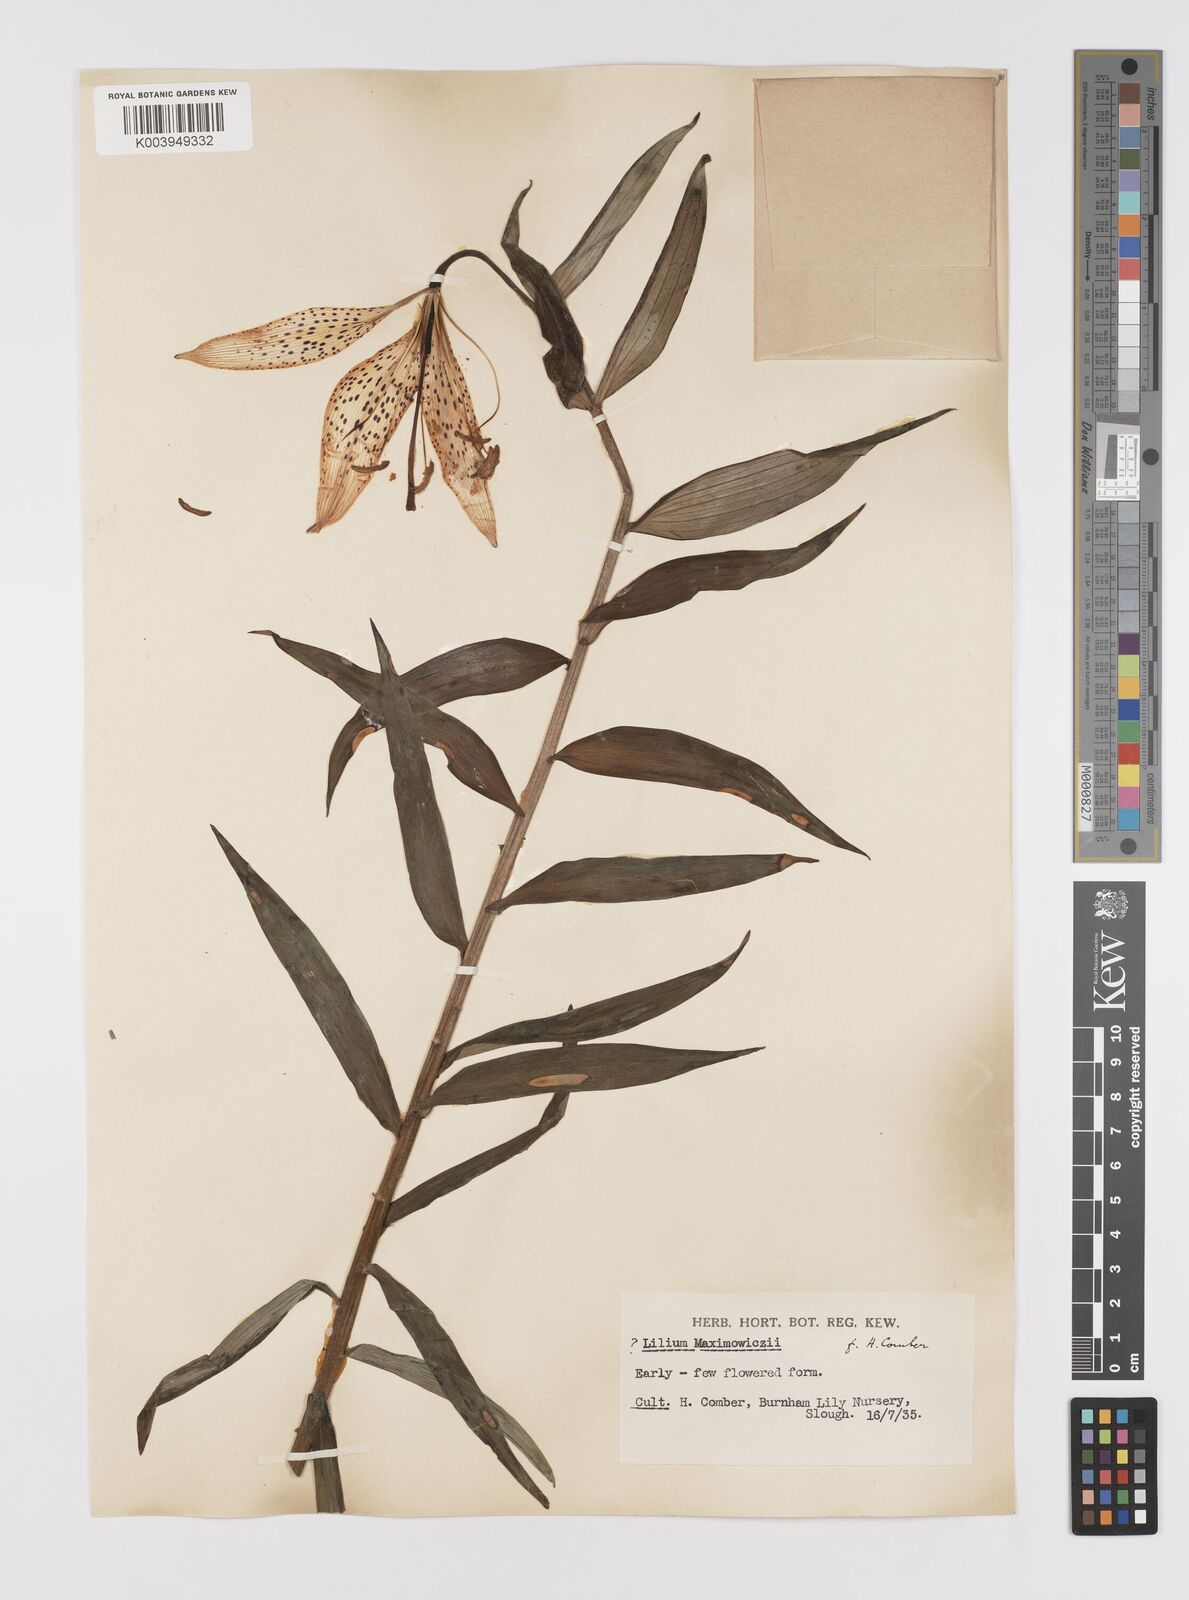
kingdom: Plantae
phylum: Tracheophyta
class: Liliopsida
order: Liliales
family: Liliaceae
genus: Lilium
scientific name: Lilium leichtlinii
